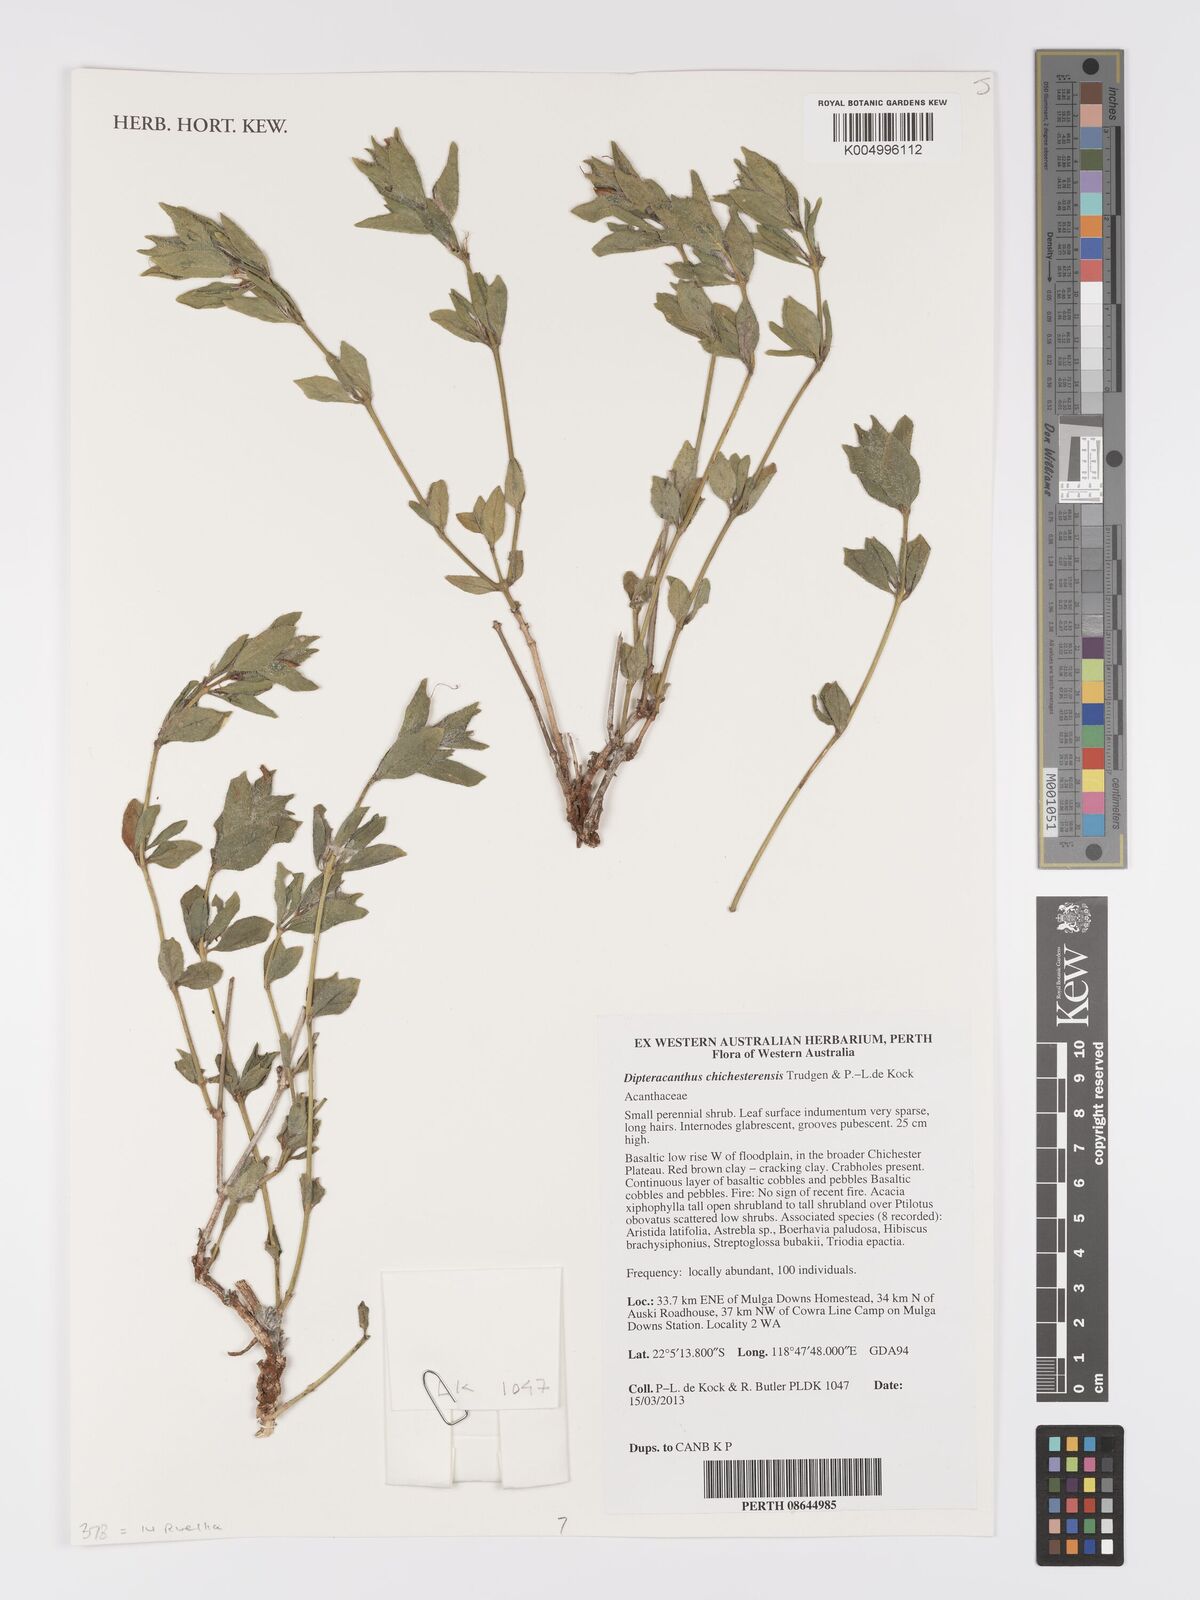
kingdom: Plantae
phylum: Tracheophyta
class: Magnoliopsida
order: Lamiales
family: Acanthaceae
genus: Ruellia
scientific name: Ruellia
